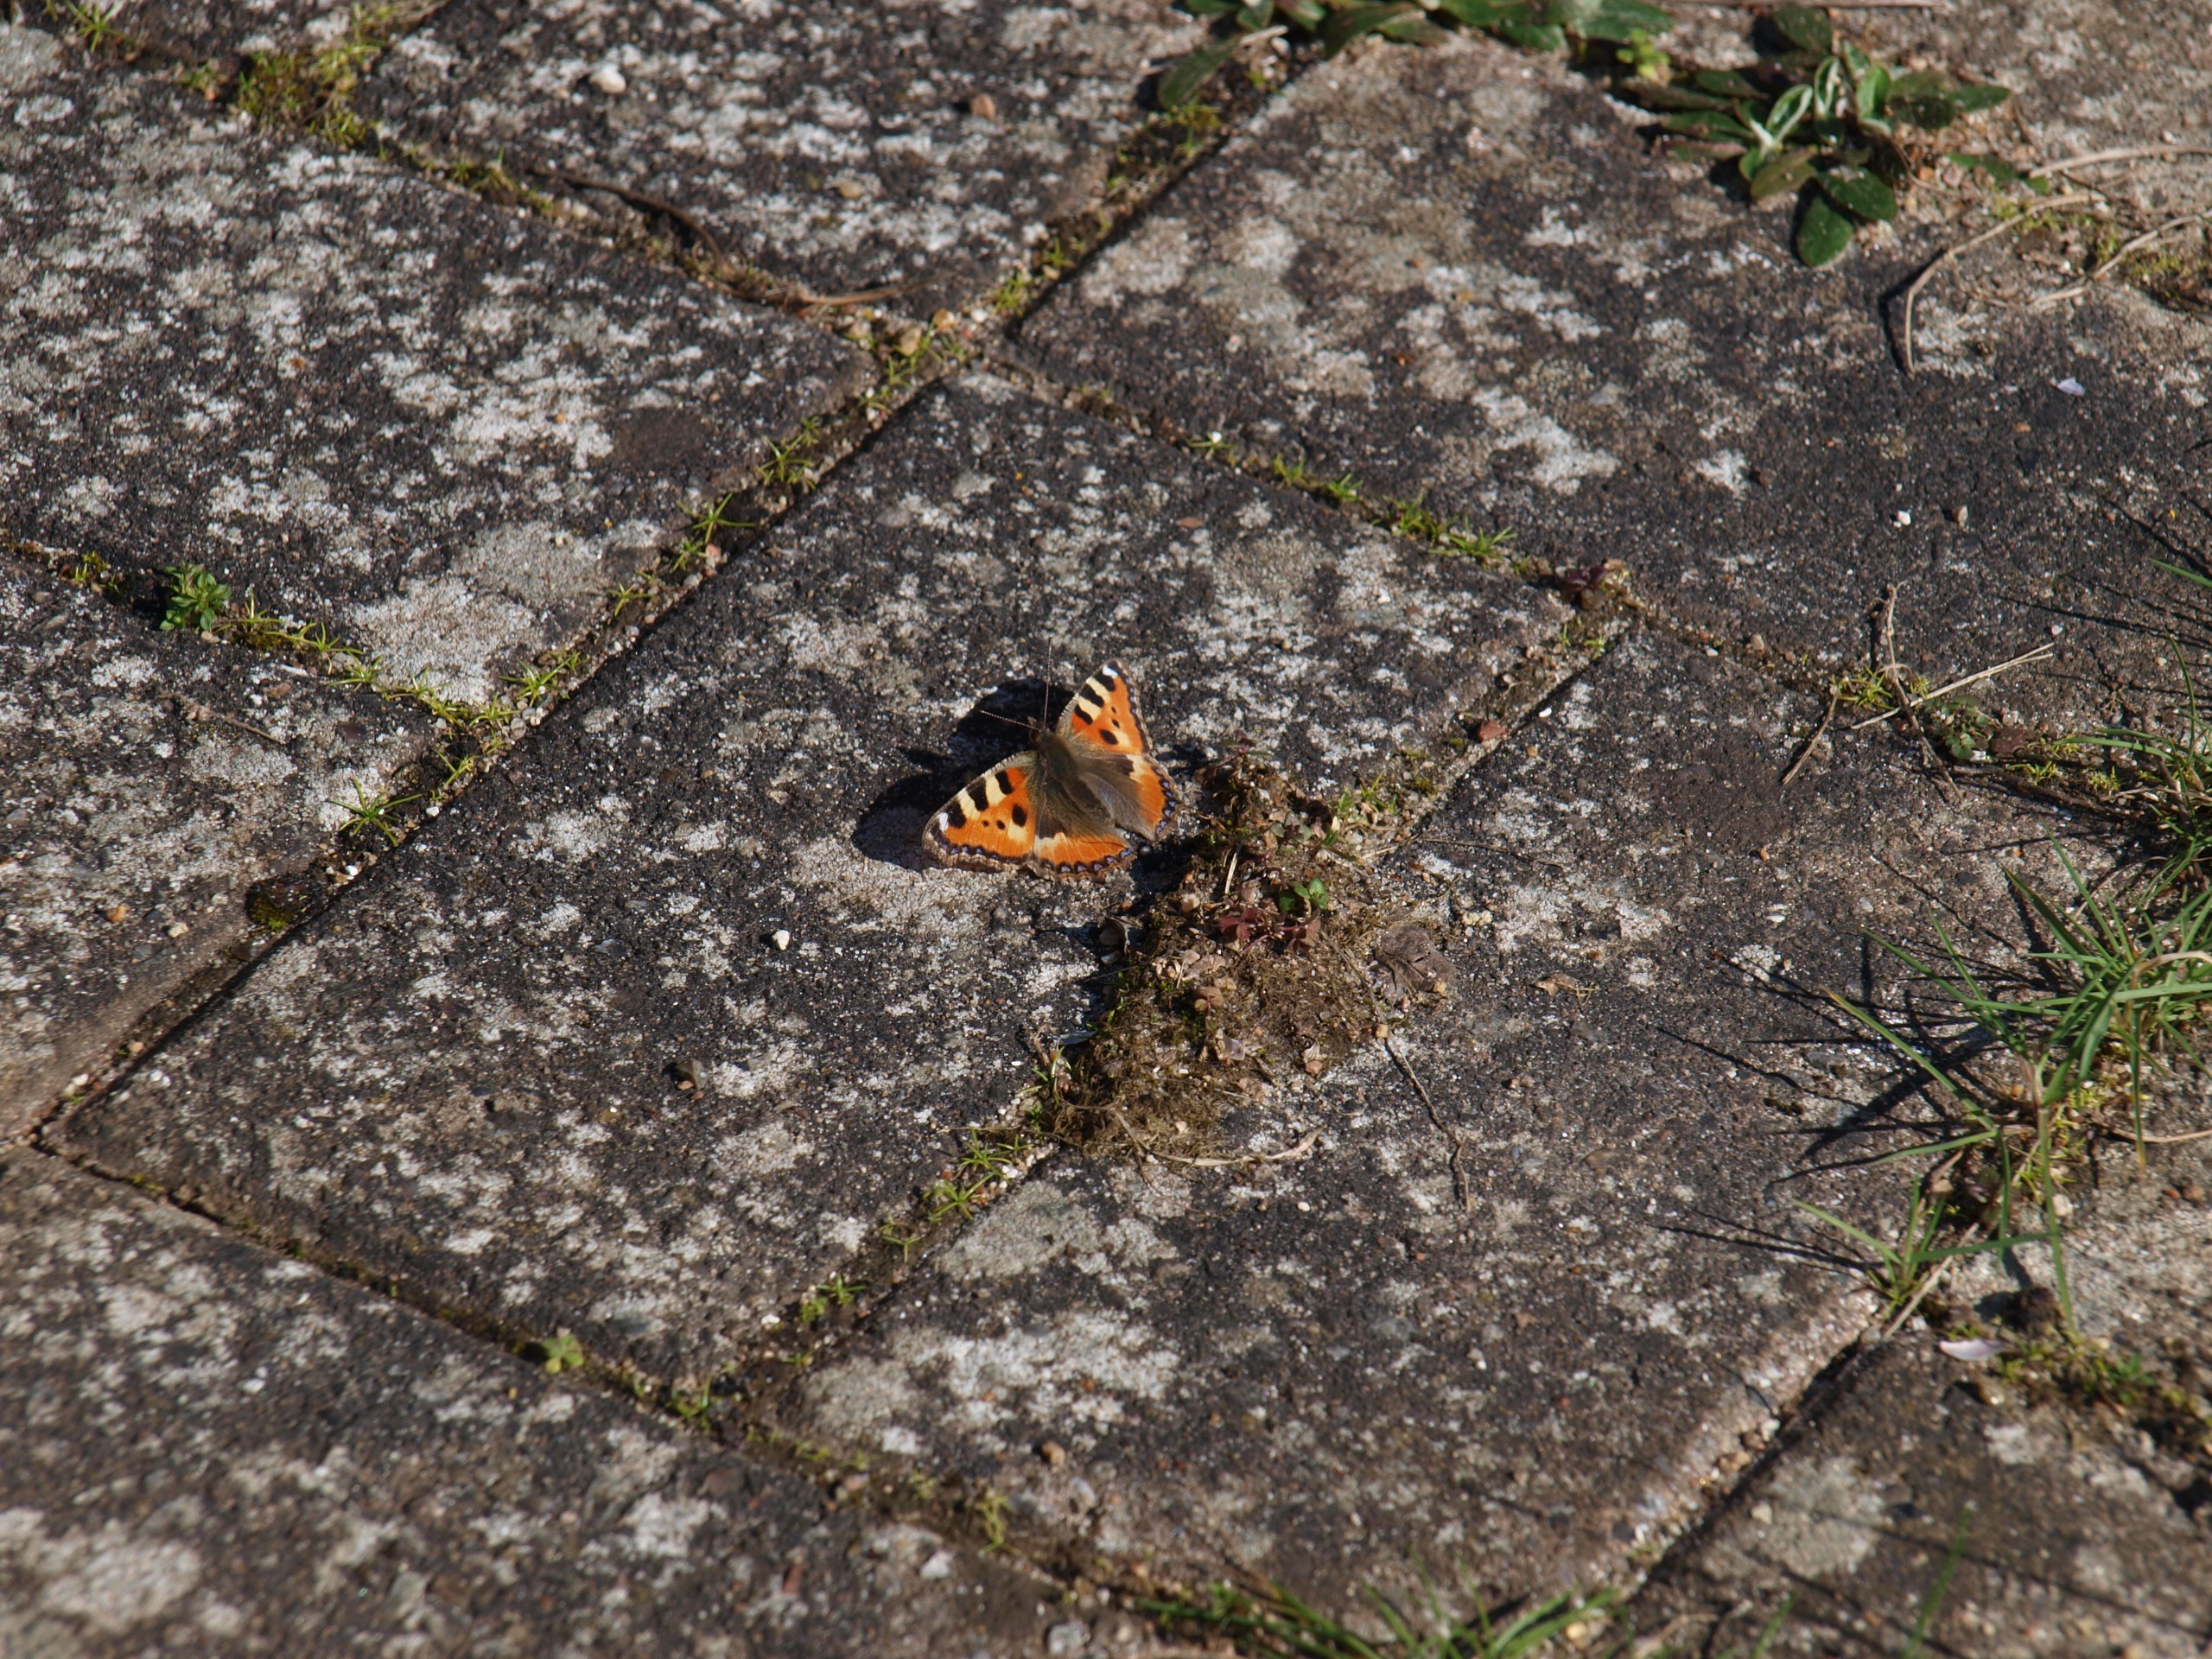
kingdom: Animalia
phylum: Arthropoda
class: Insecta
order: Lepidoptera
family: Nymphalidae
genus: Aglais
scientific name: Aglais urticae
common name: Nældens takvinge
